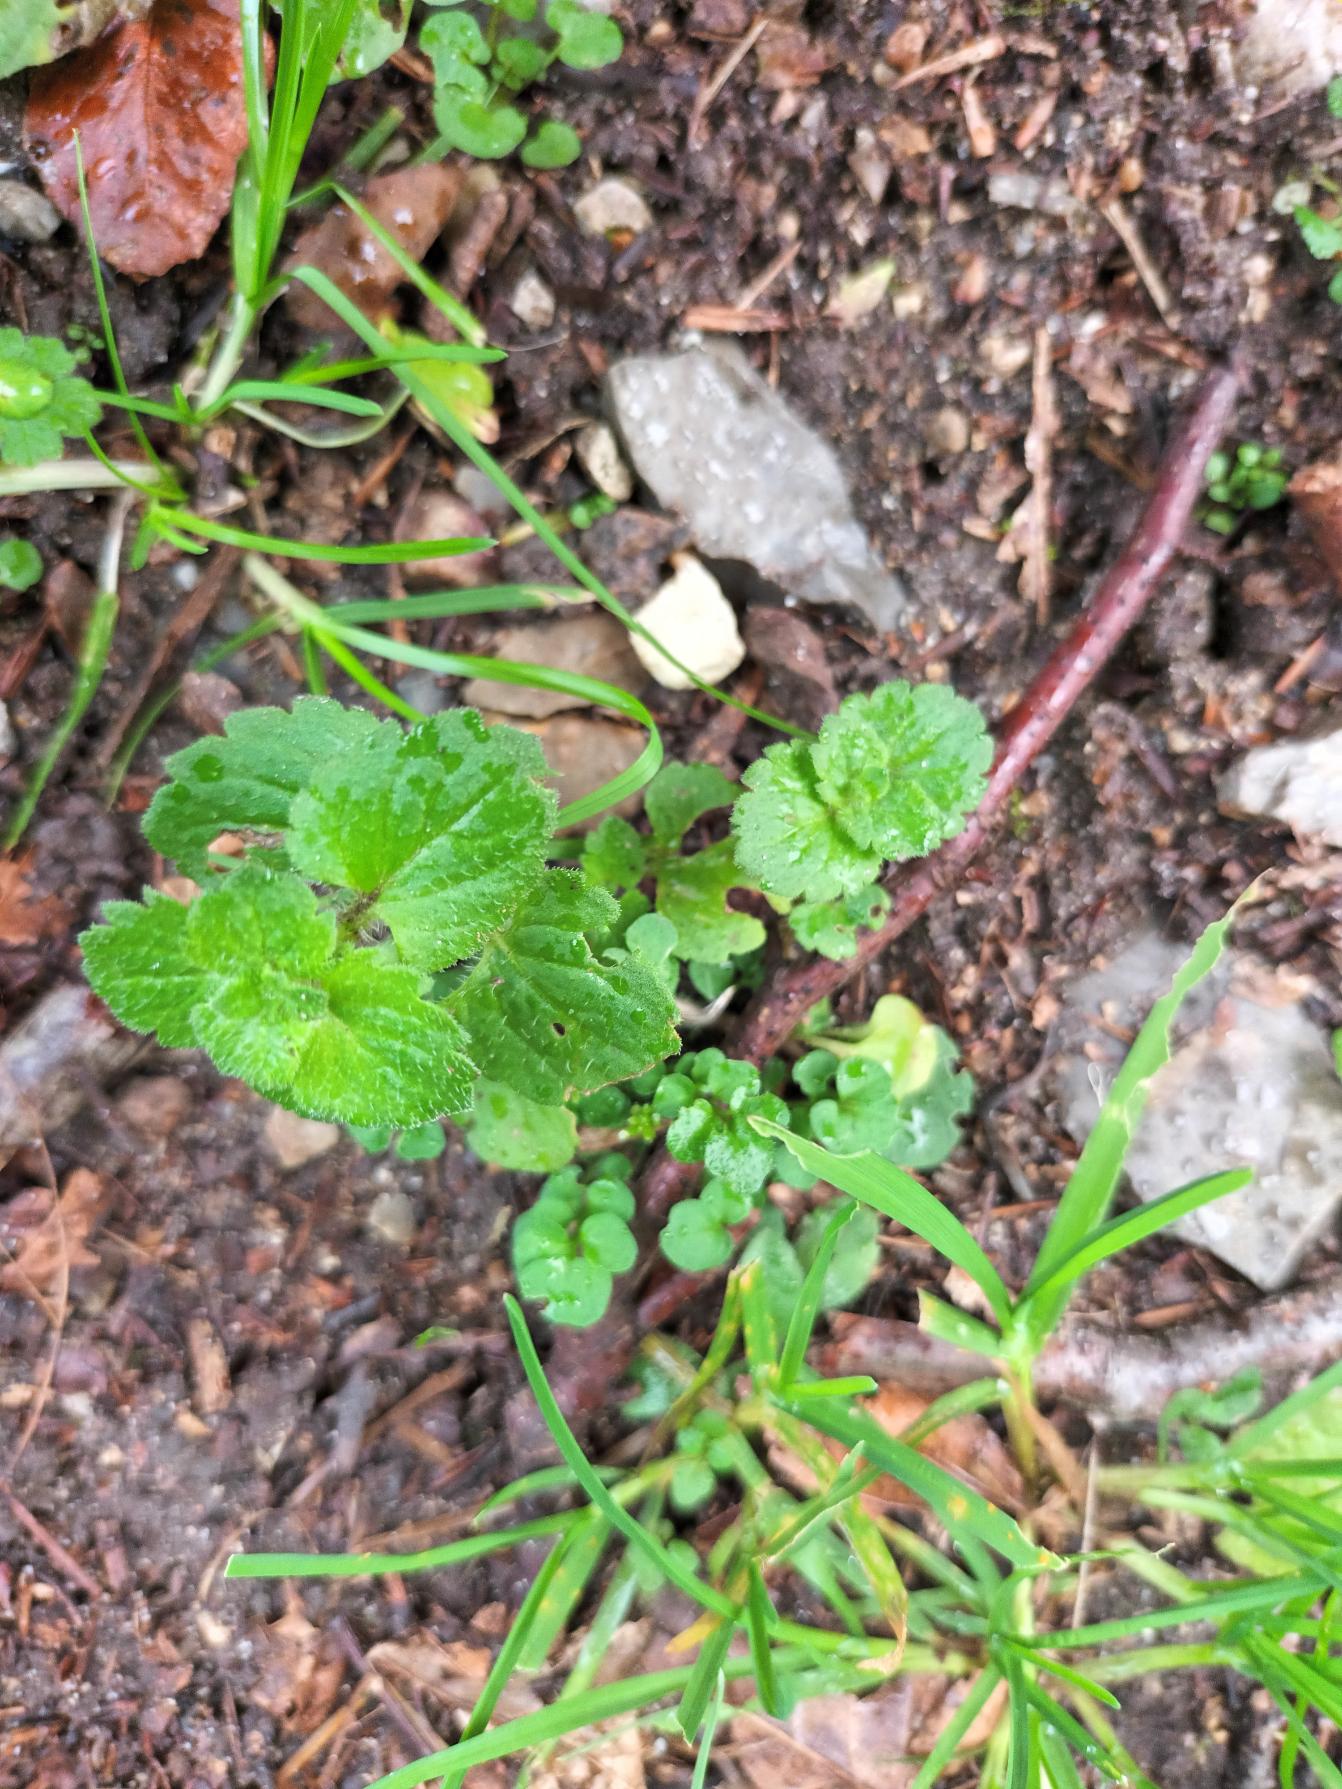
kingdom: Plantae
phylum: Tracheophyta
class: Magnoliopsida
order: Lamiales
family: Plantaginaceae
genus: Veronica
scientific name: Veronica persica
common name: Storkronet ærenpris
